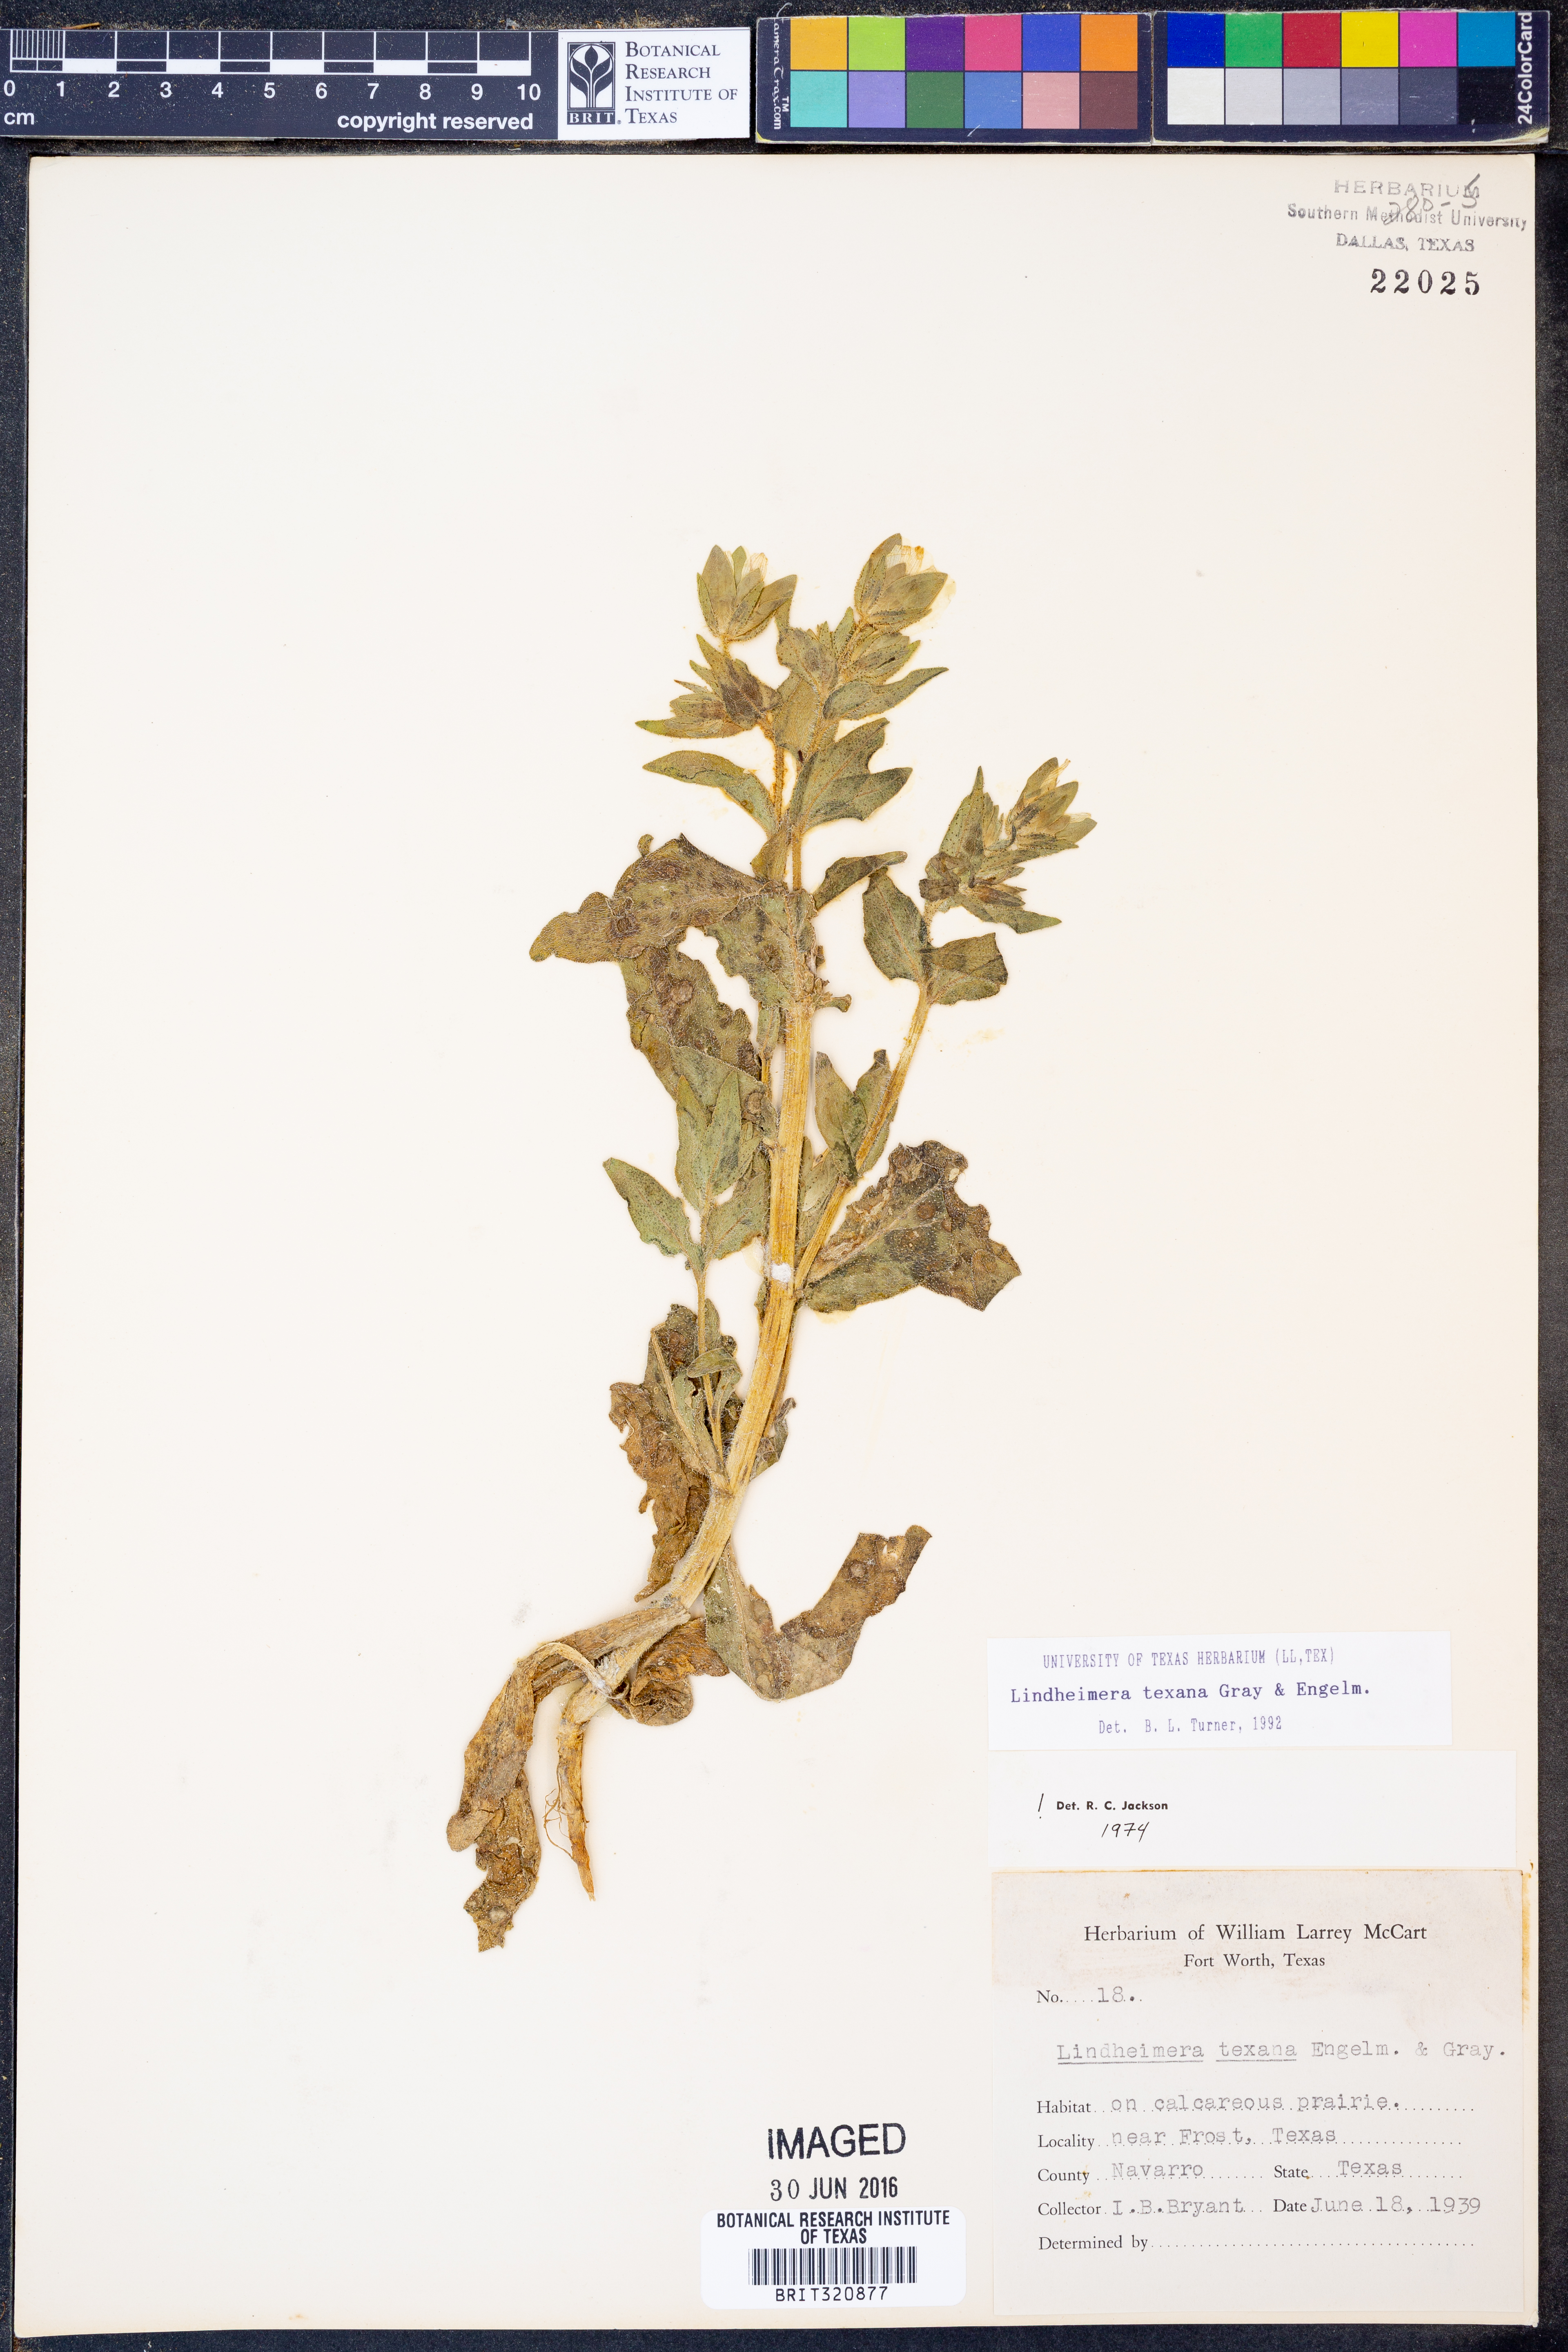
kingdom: Plantae
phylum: Tracheophyta
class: Magnoliopsida
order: Asterales
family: Asteraceae
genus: Lindheimera
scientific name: Lindheimera texana
